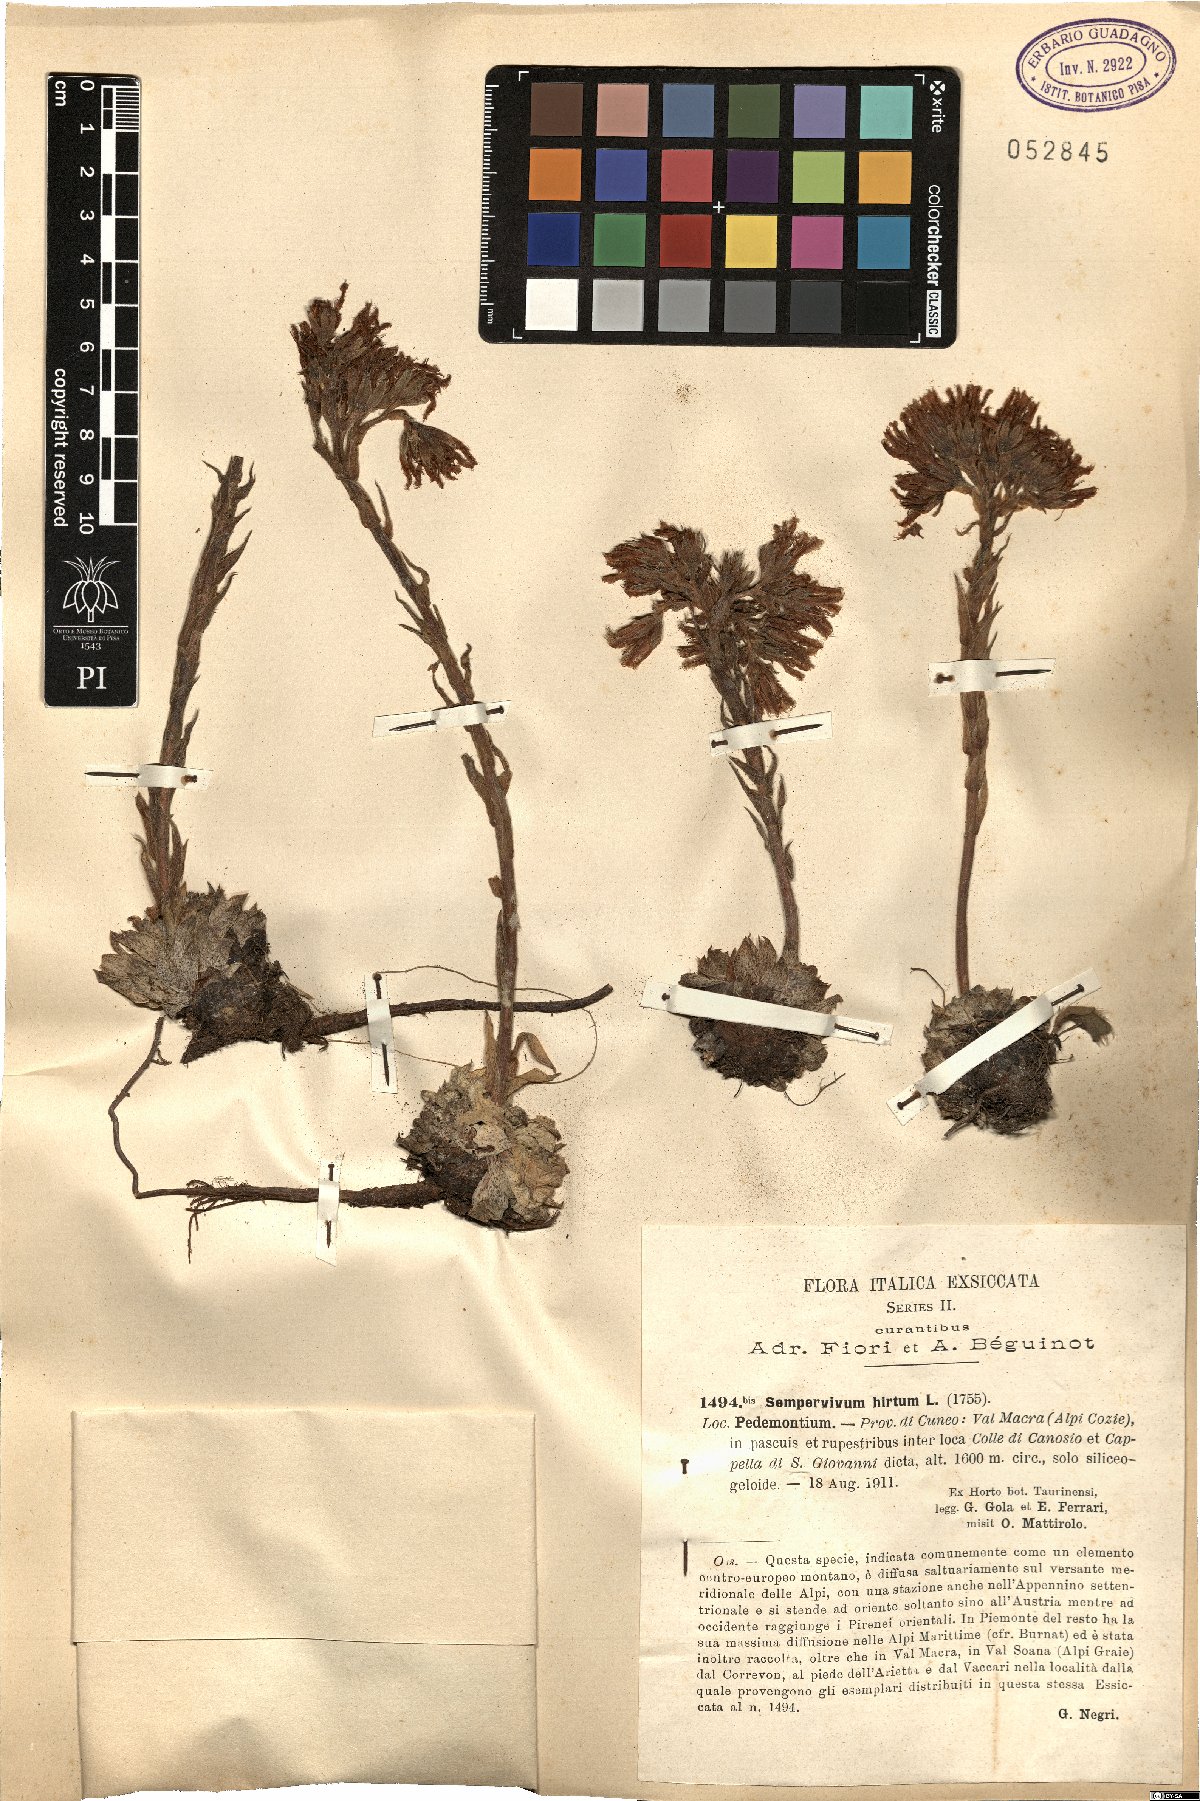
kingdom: Plantae
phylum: Tracheophyta
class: Magnoliopsida
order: Saxifragales
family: Crassulaceae
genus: Sempervivum
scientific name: Sempervivum globiferum
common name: Rolling hen-and-chicks
